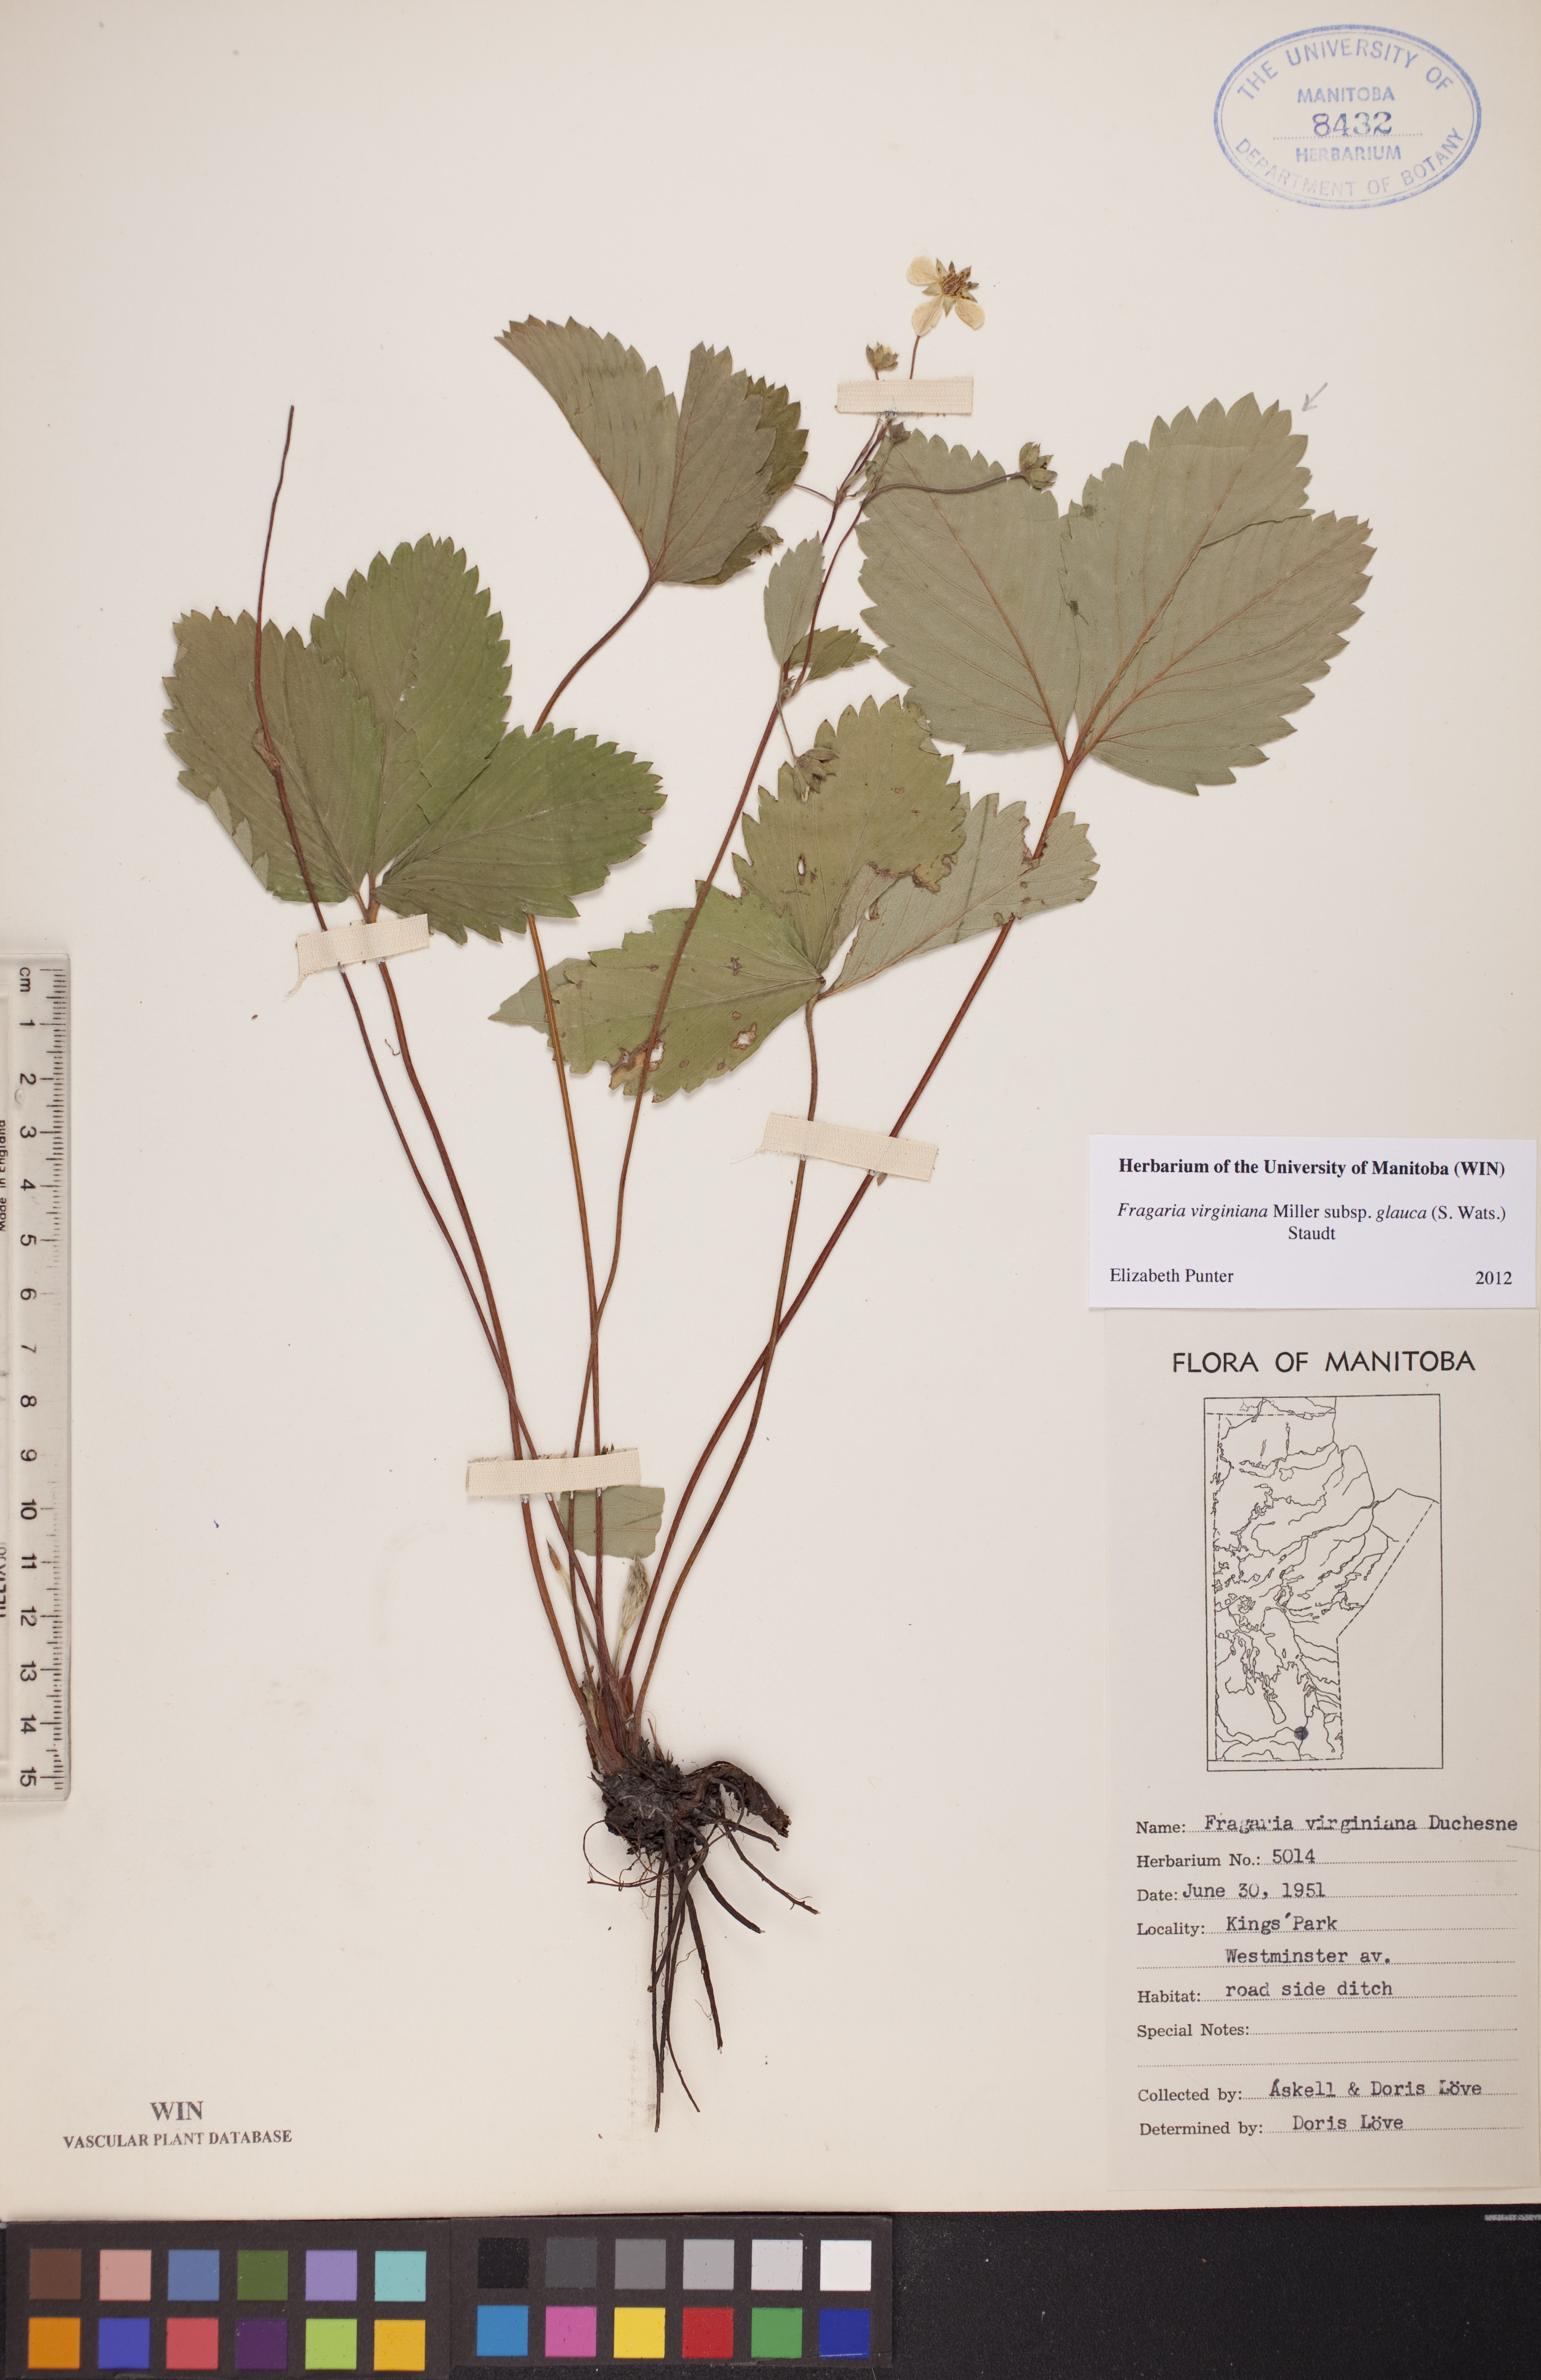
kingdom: Plantae
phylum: Tracheophyta
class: Magnoliopsida
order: Rosales
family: Rosaceae
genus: Fragaria
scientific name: Fragaria virginiana
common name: Thickleaved wild strawberry
